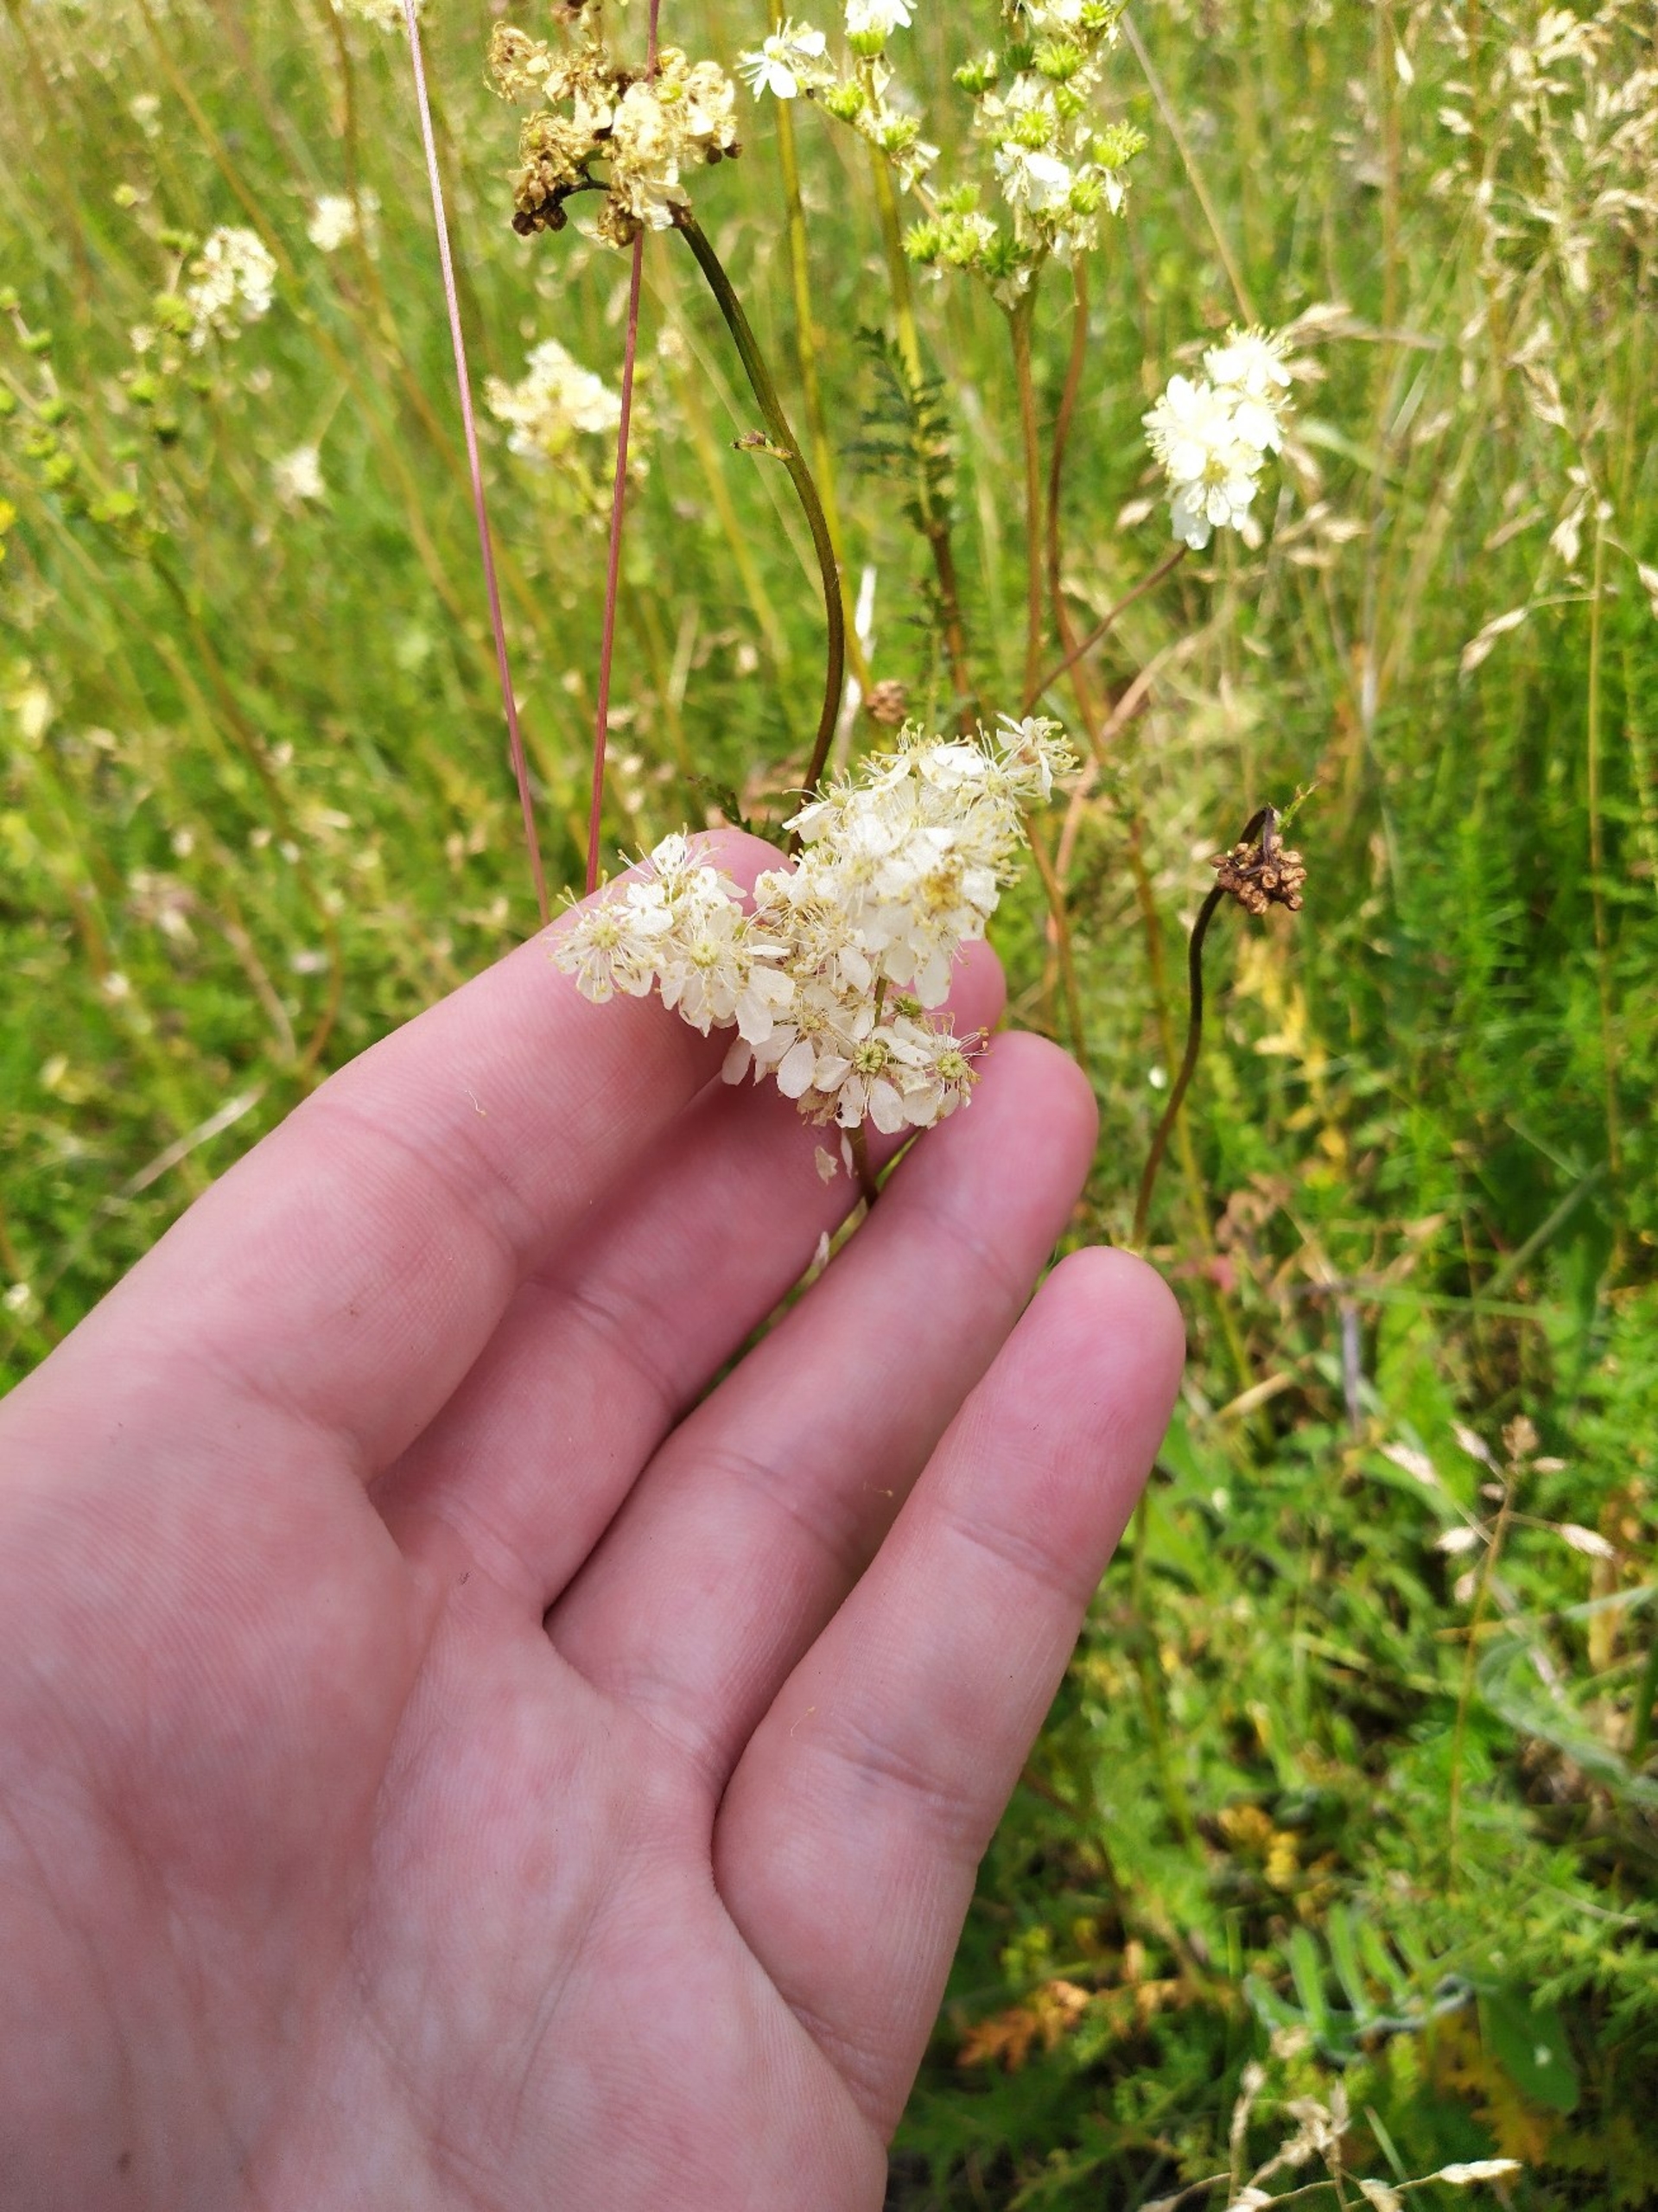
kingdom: Plantae
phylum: Tracheophyta
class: Magnoliopsida
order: Rosales
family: Rosaceae
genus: Filipendula
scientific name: Filipendula vulgaris
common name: Knoldet mjødurt
